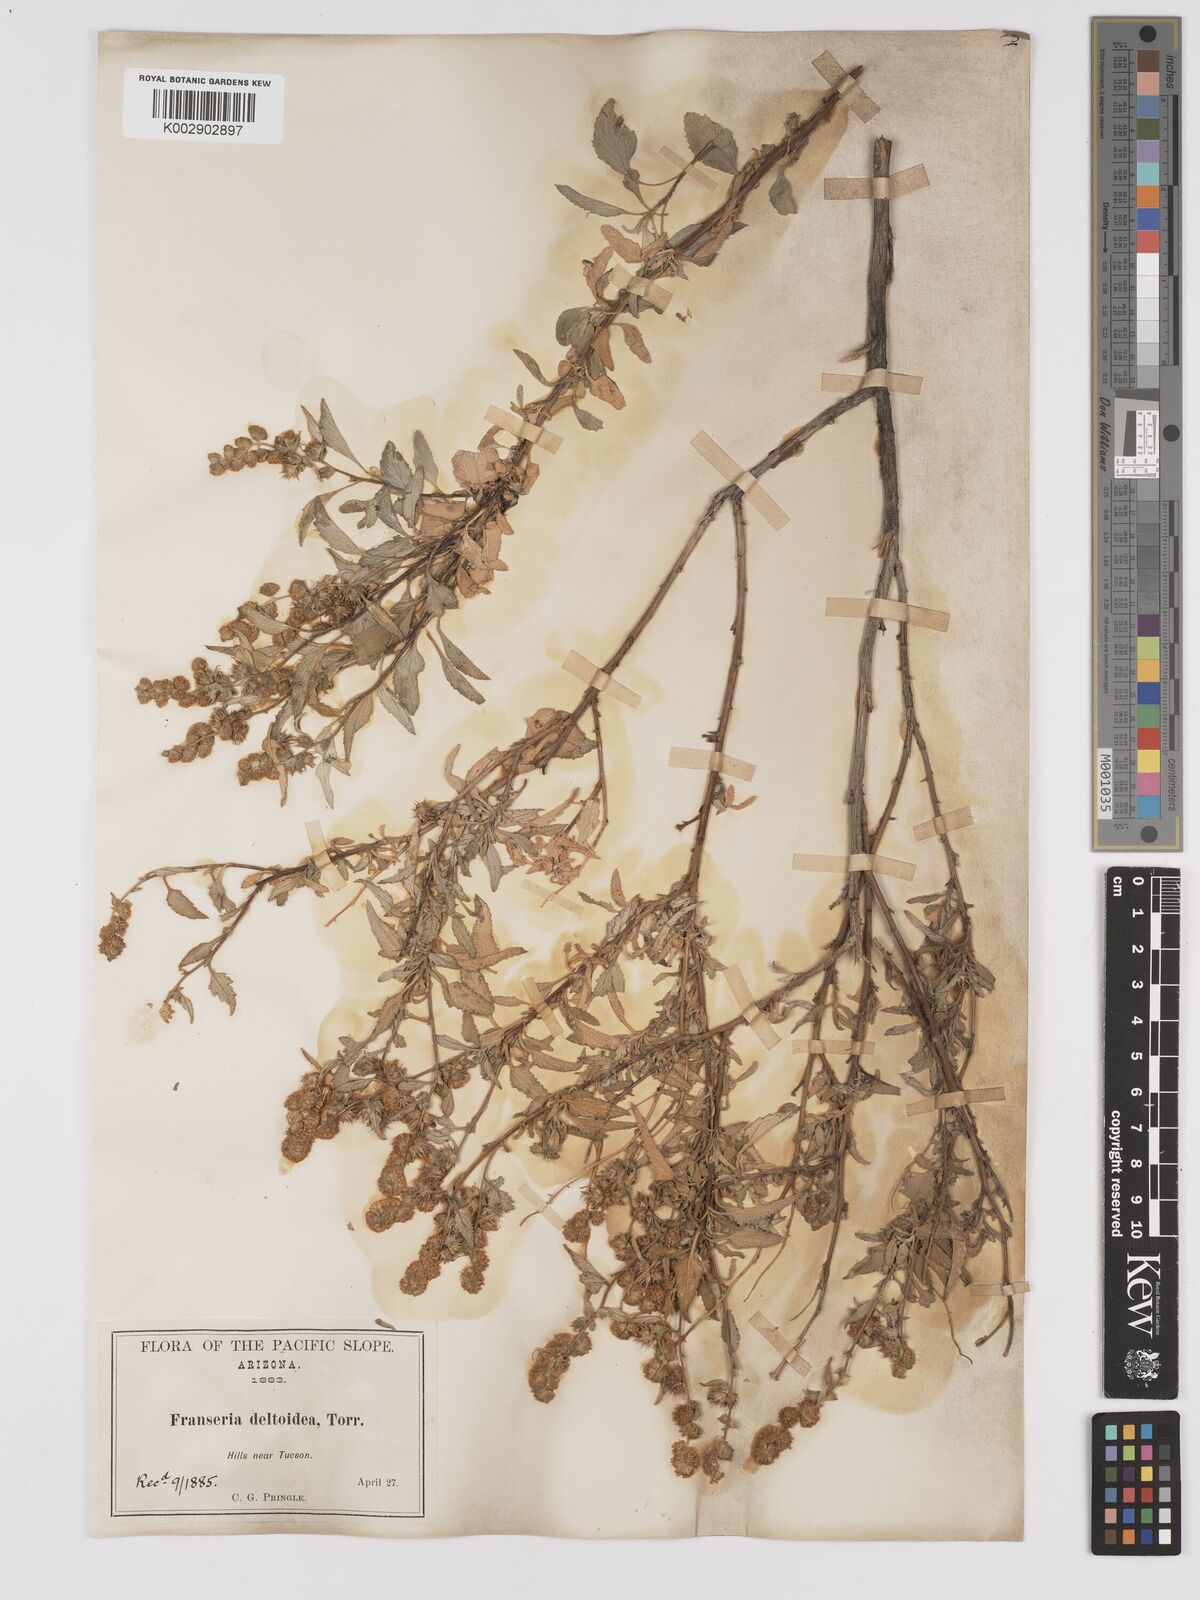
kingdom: Plantae
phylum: Tracheophyta
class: Magnoliopsida
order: Asterales
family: Asteraceae
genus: Ambrosia
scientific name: Ambrosia
